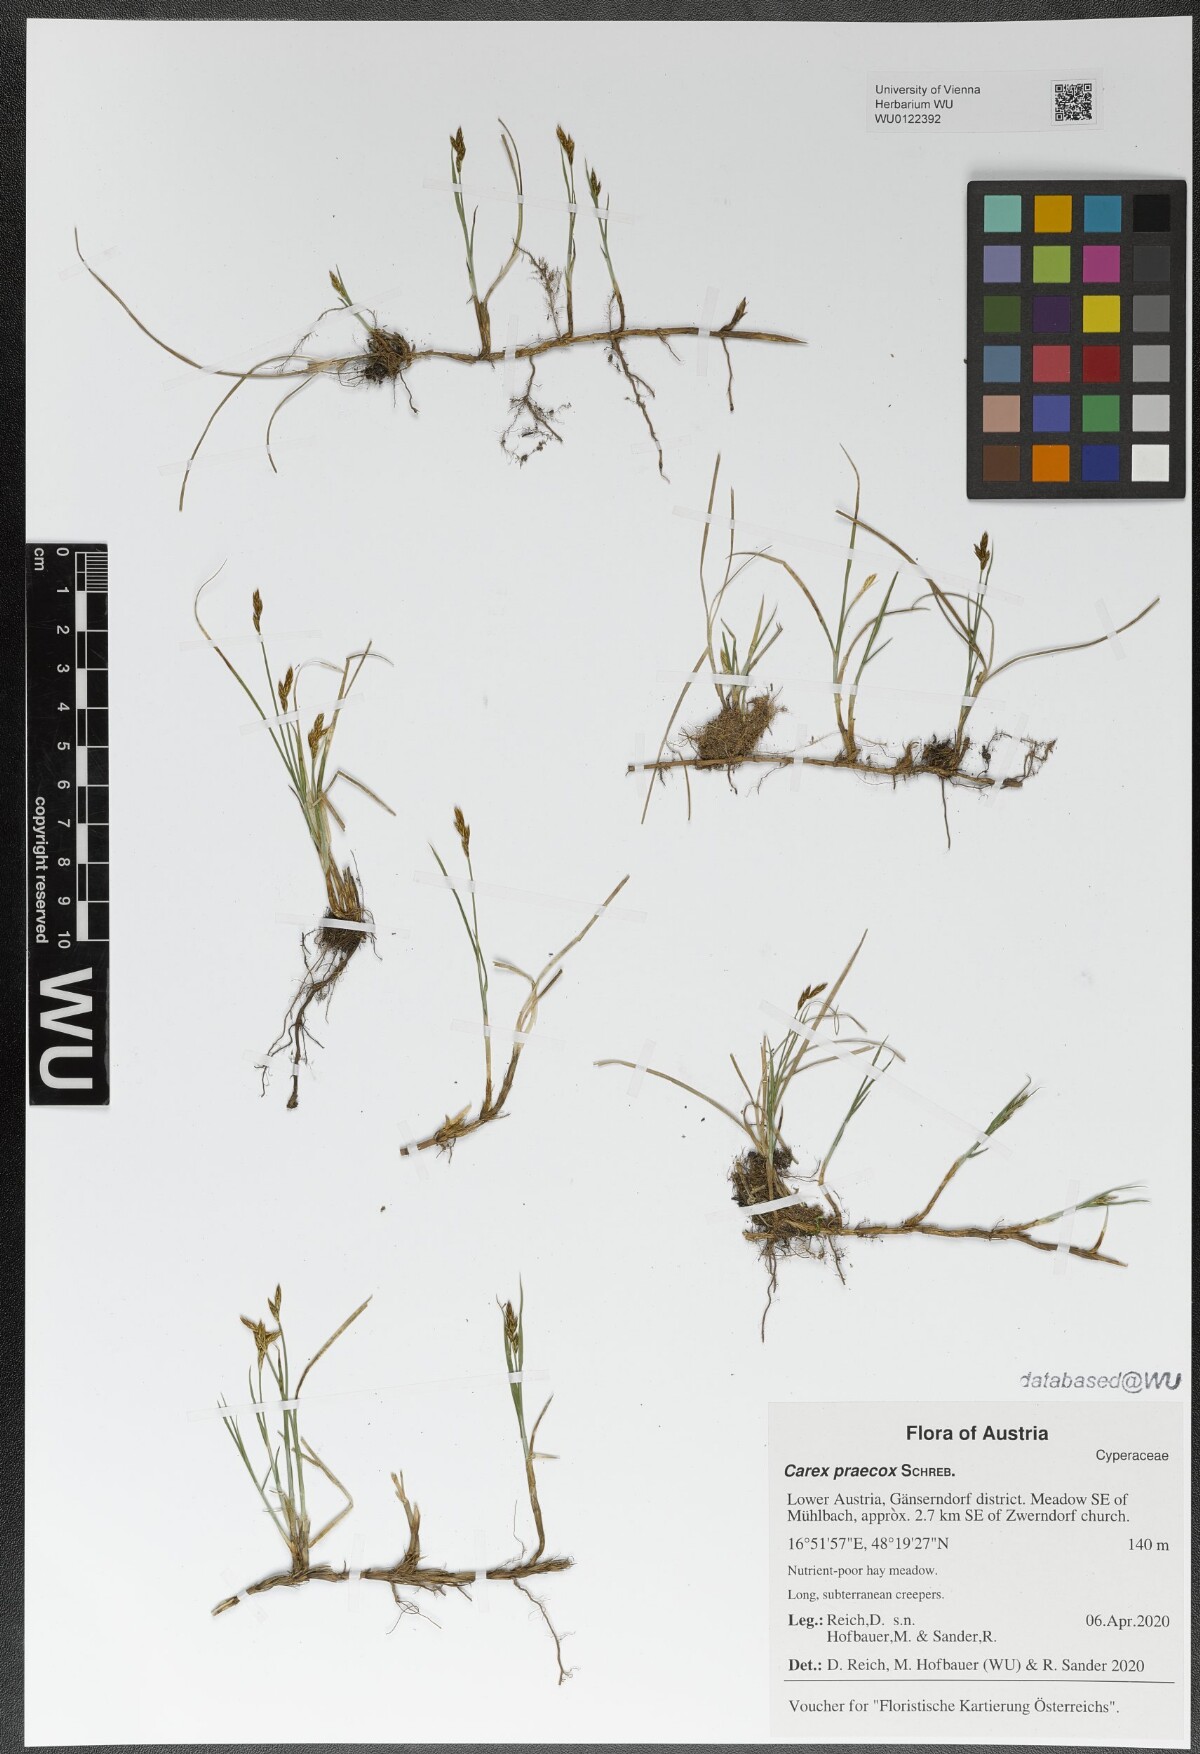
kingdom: Plantae
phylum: Tracheophyta
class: Liliopsida
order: Poales
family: Cyperaceae
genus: Carex
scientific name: Carex praecox
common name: Early sedge
